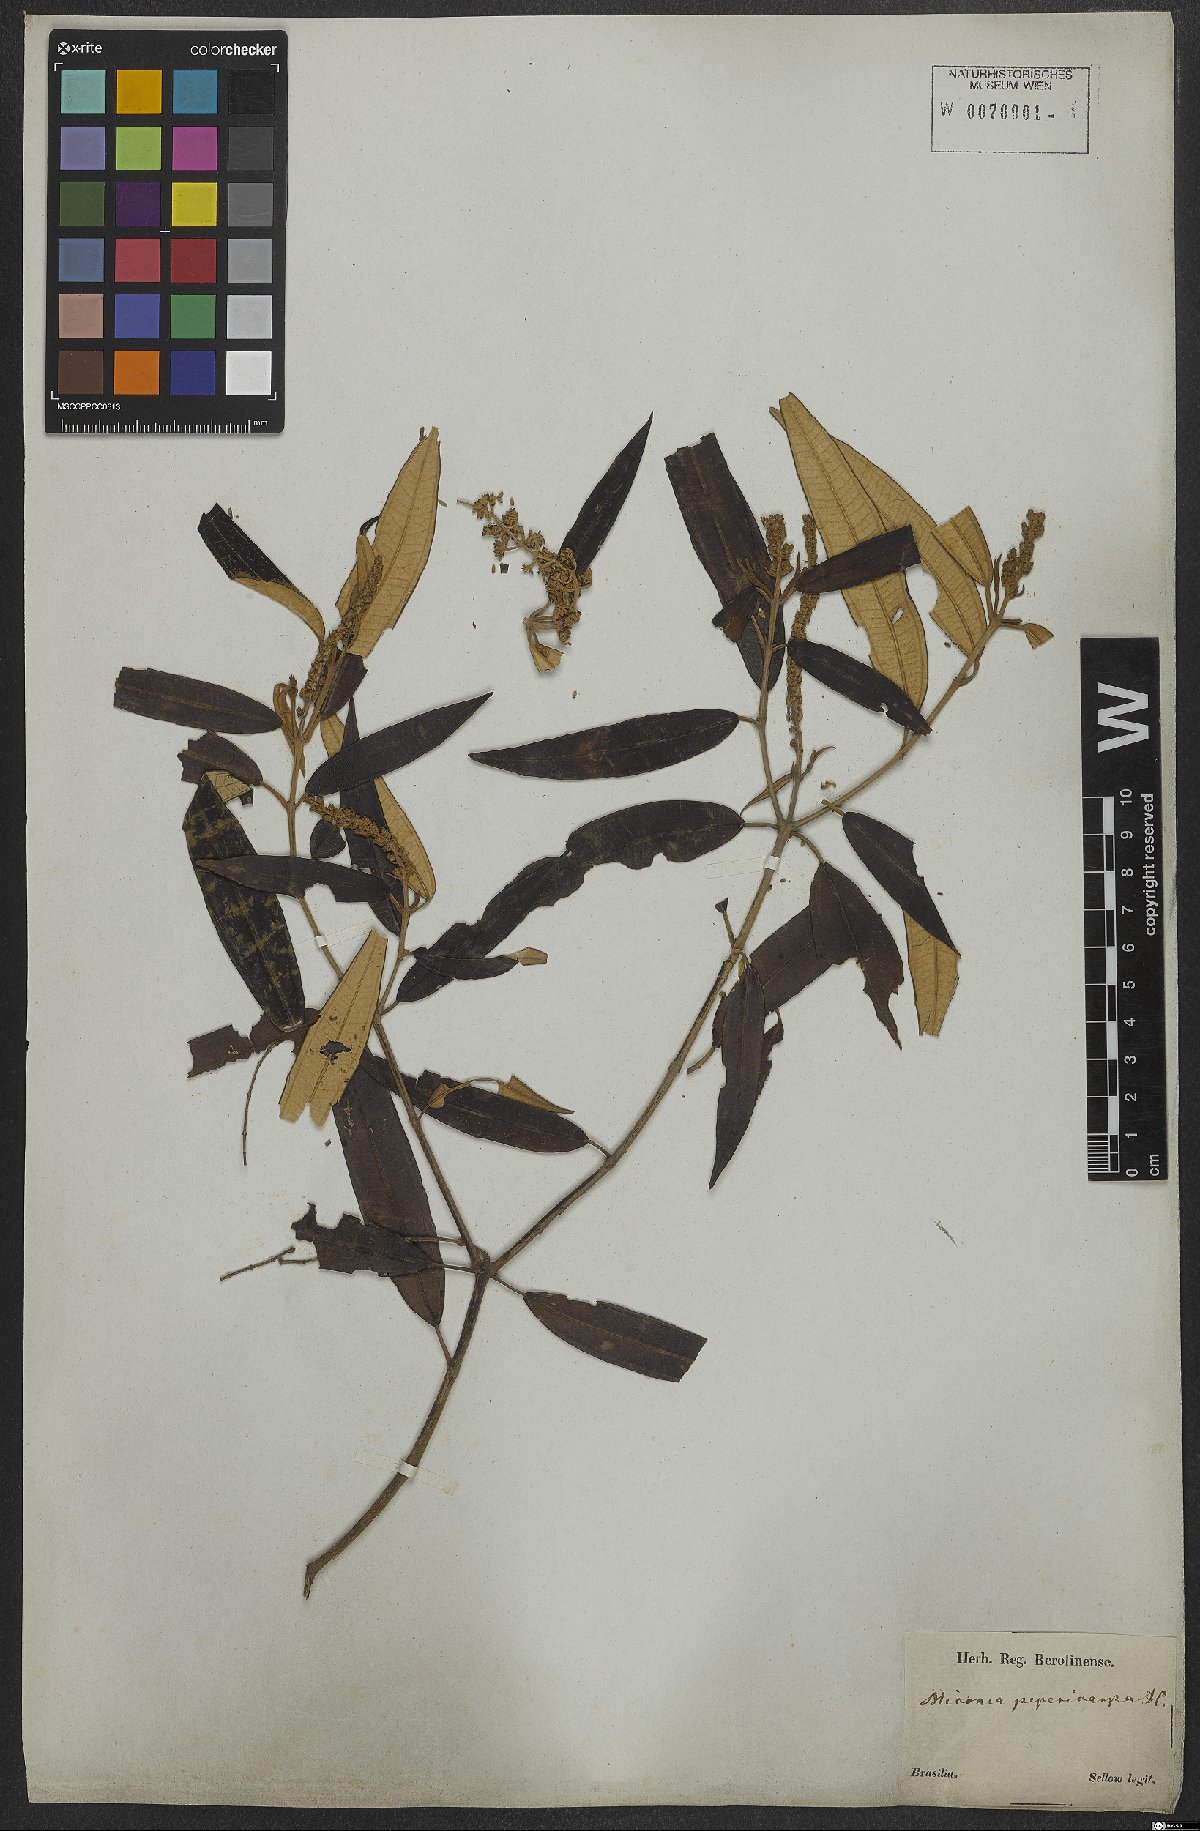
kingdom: Plantae
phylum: Tracheophyta
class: Magnoliopsida
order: Myrtales
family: Melastomataceae
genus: Miconia
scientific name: Miconia pepericarpa
